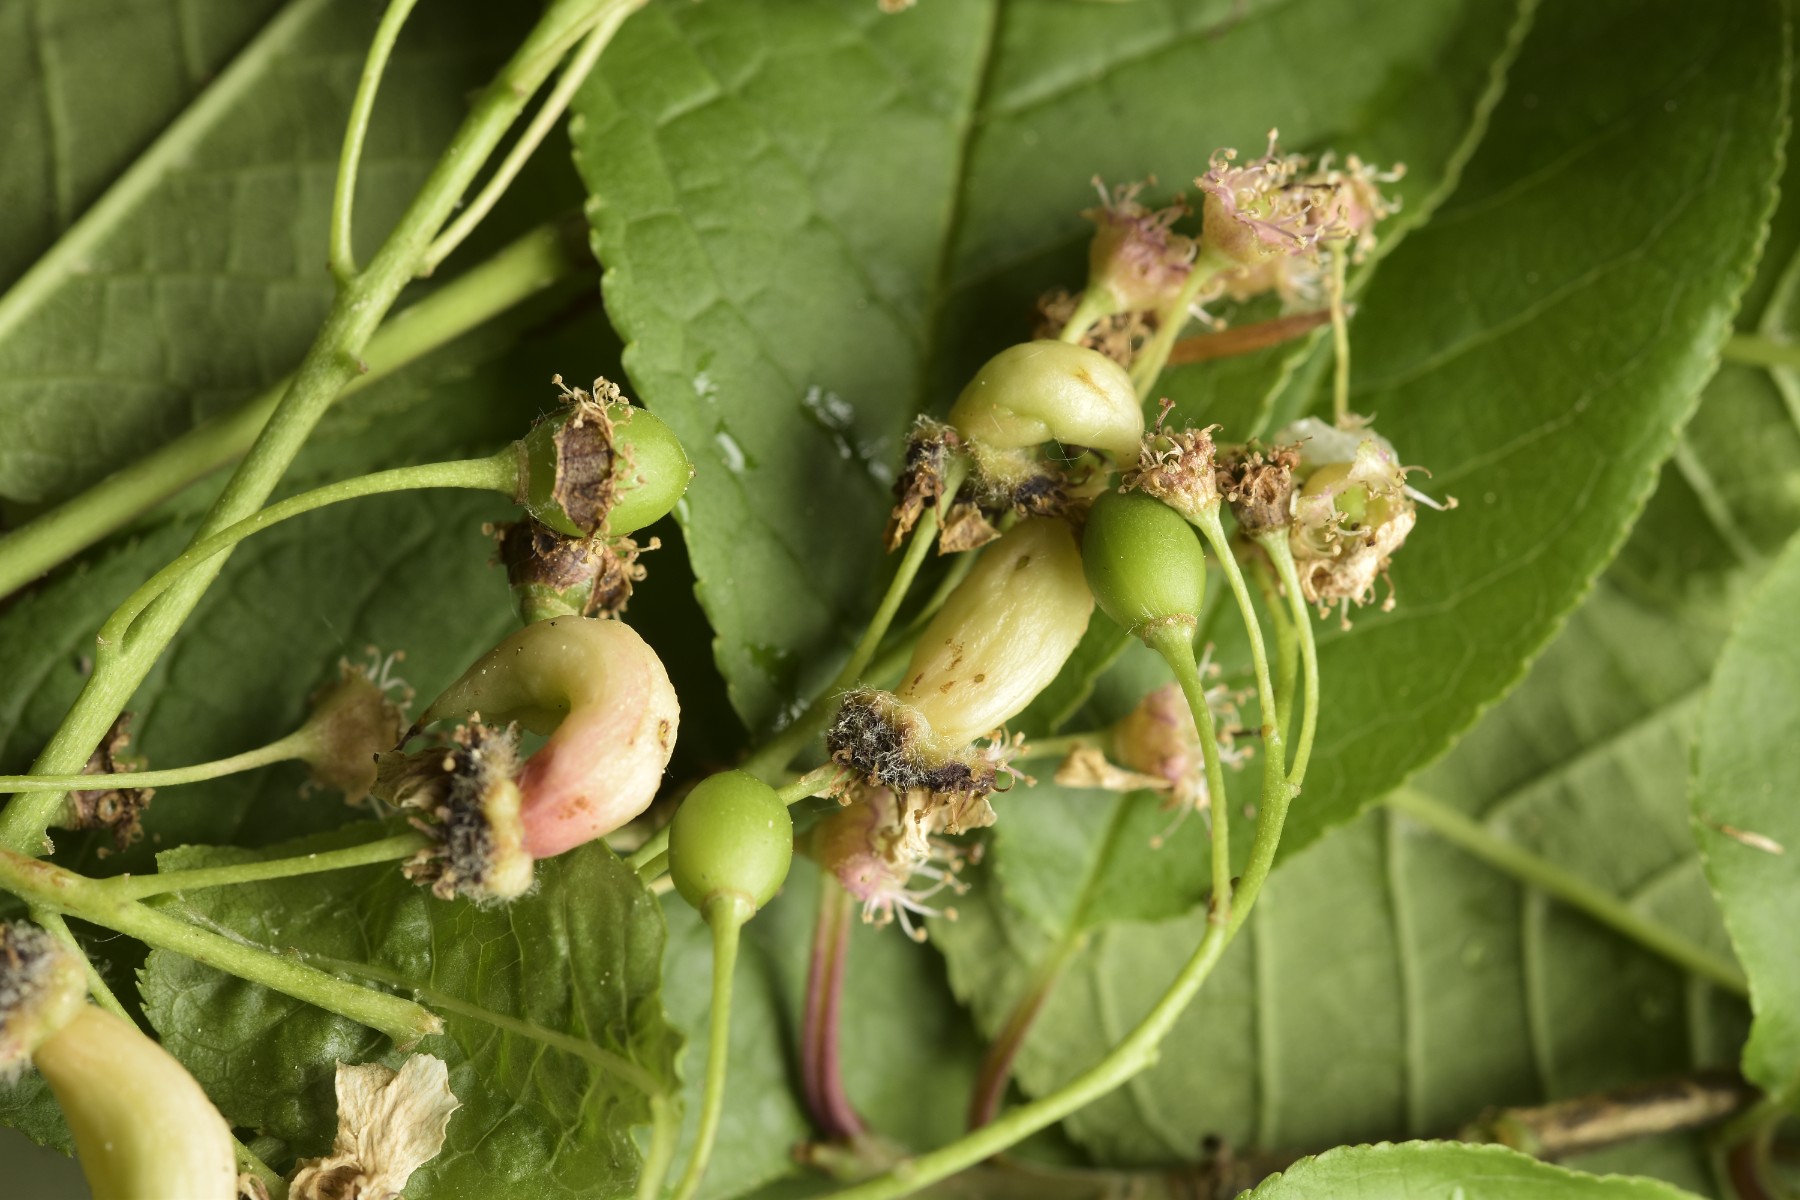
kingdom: Fungi
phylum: Ascomycota
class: Taphrinomycetes
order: Taphrinales
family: Taphrinaceae
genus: Taphrina
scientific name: Taphrina padi
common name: Bird cherry pocket
